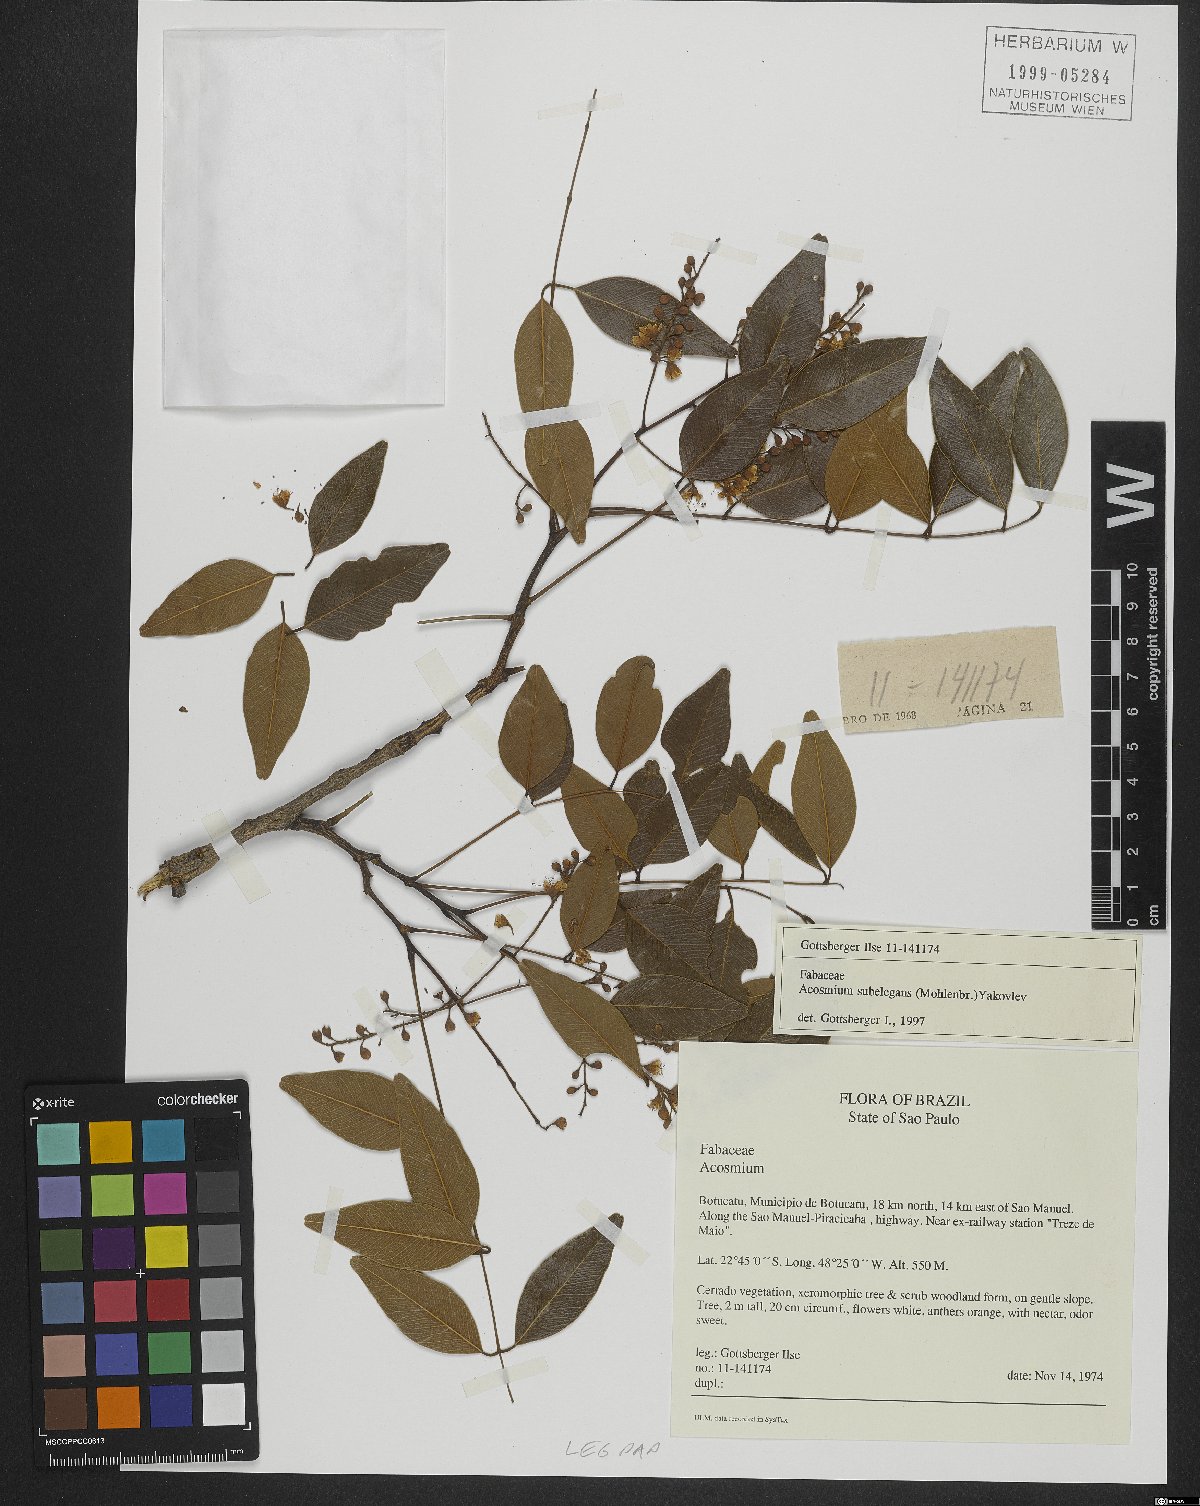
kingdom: Plantae
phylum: Tracheophyta
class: Magnoliopsida
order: Fabales
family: Fabaceae
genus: Leptolobium
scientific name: Leptolobium elegans
